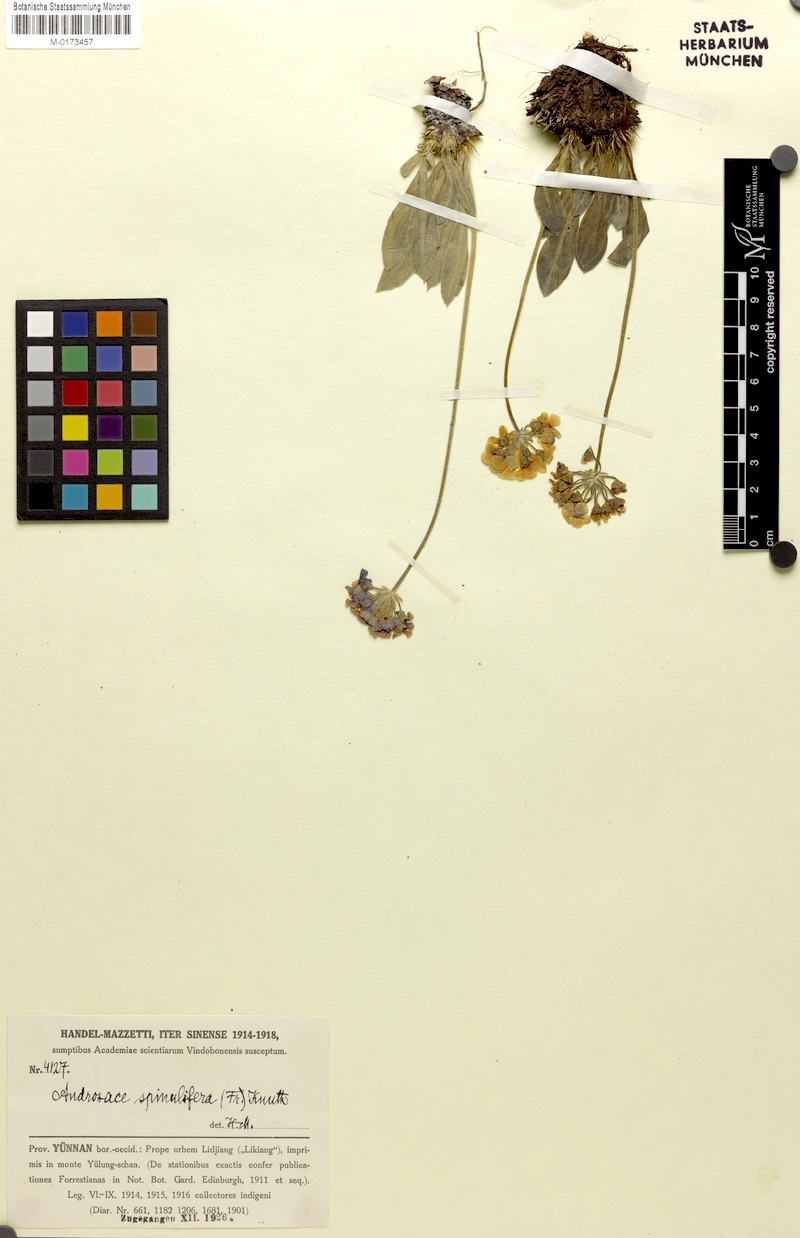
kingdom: Plantae
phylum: Tracheophyta
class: Magnoliopsida
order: Ericales
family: Primulaceae
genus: Androsace
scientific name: Androsace spinulifera
